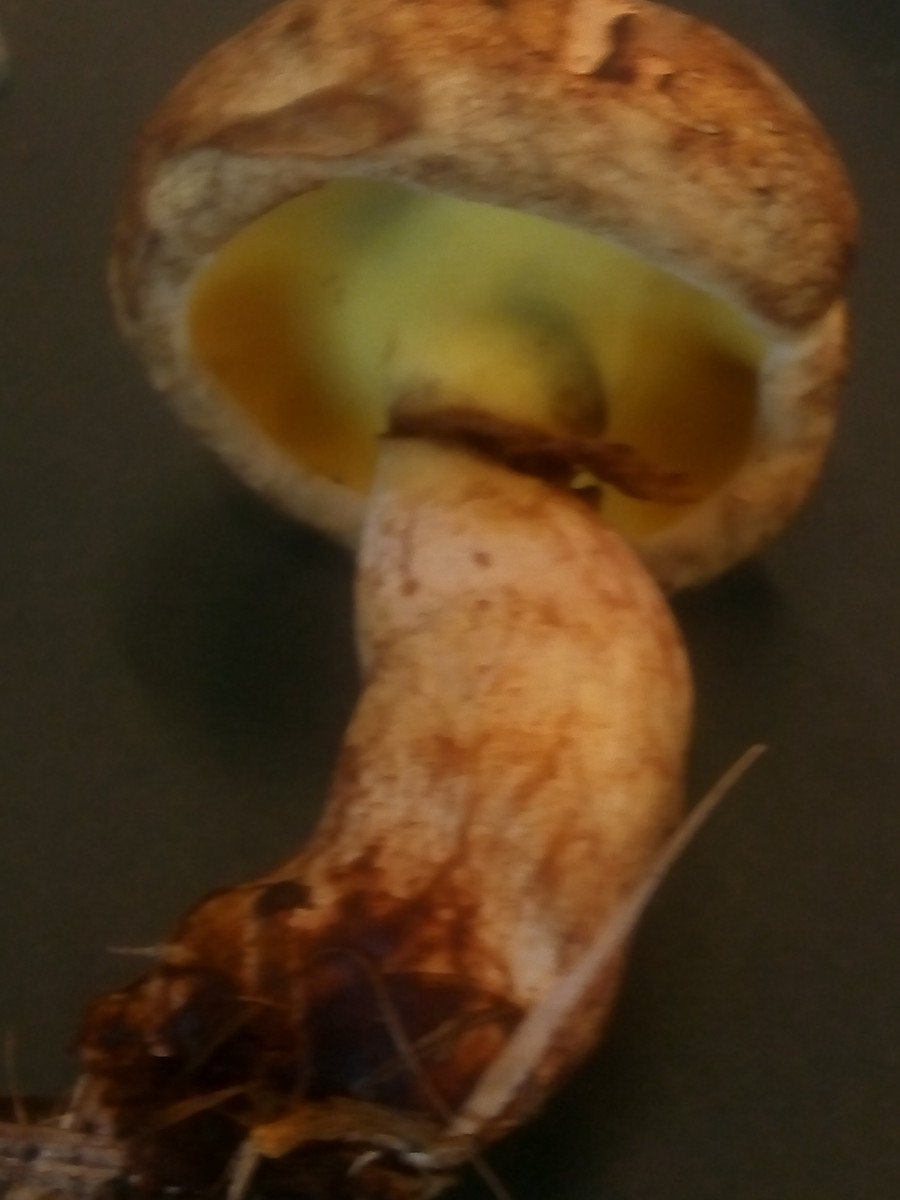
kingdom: Fungi
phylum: Basidiomycota
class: Agaricomycetes
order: Boletales
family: Paxillaceae
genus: Gyrodon
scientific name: Gyrodon lividus
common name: ellerørhat
